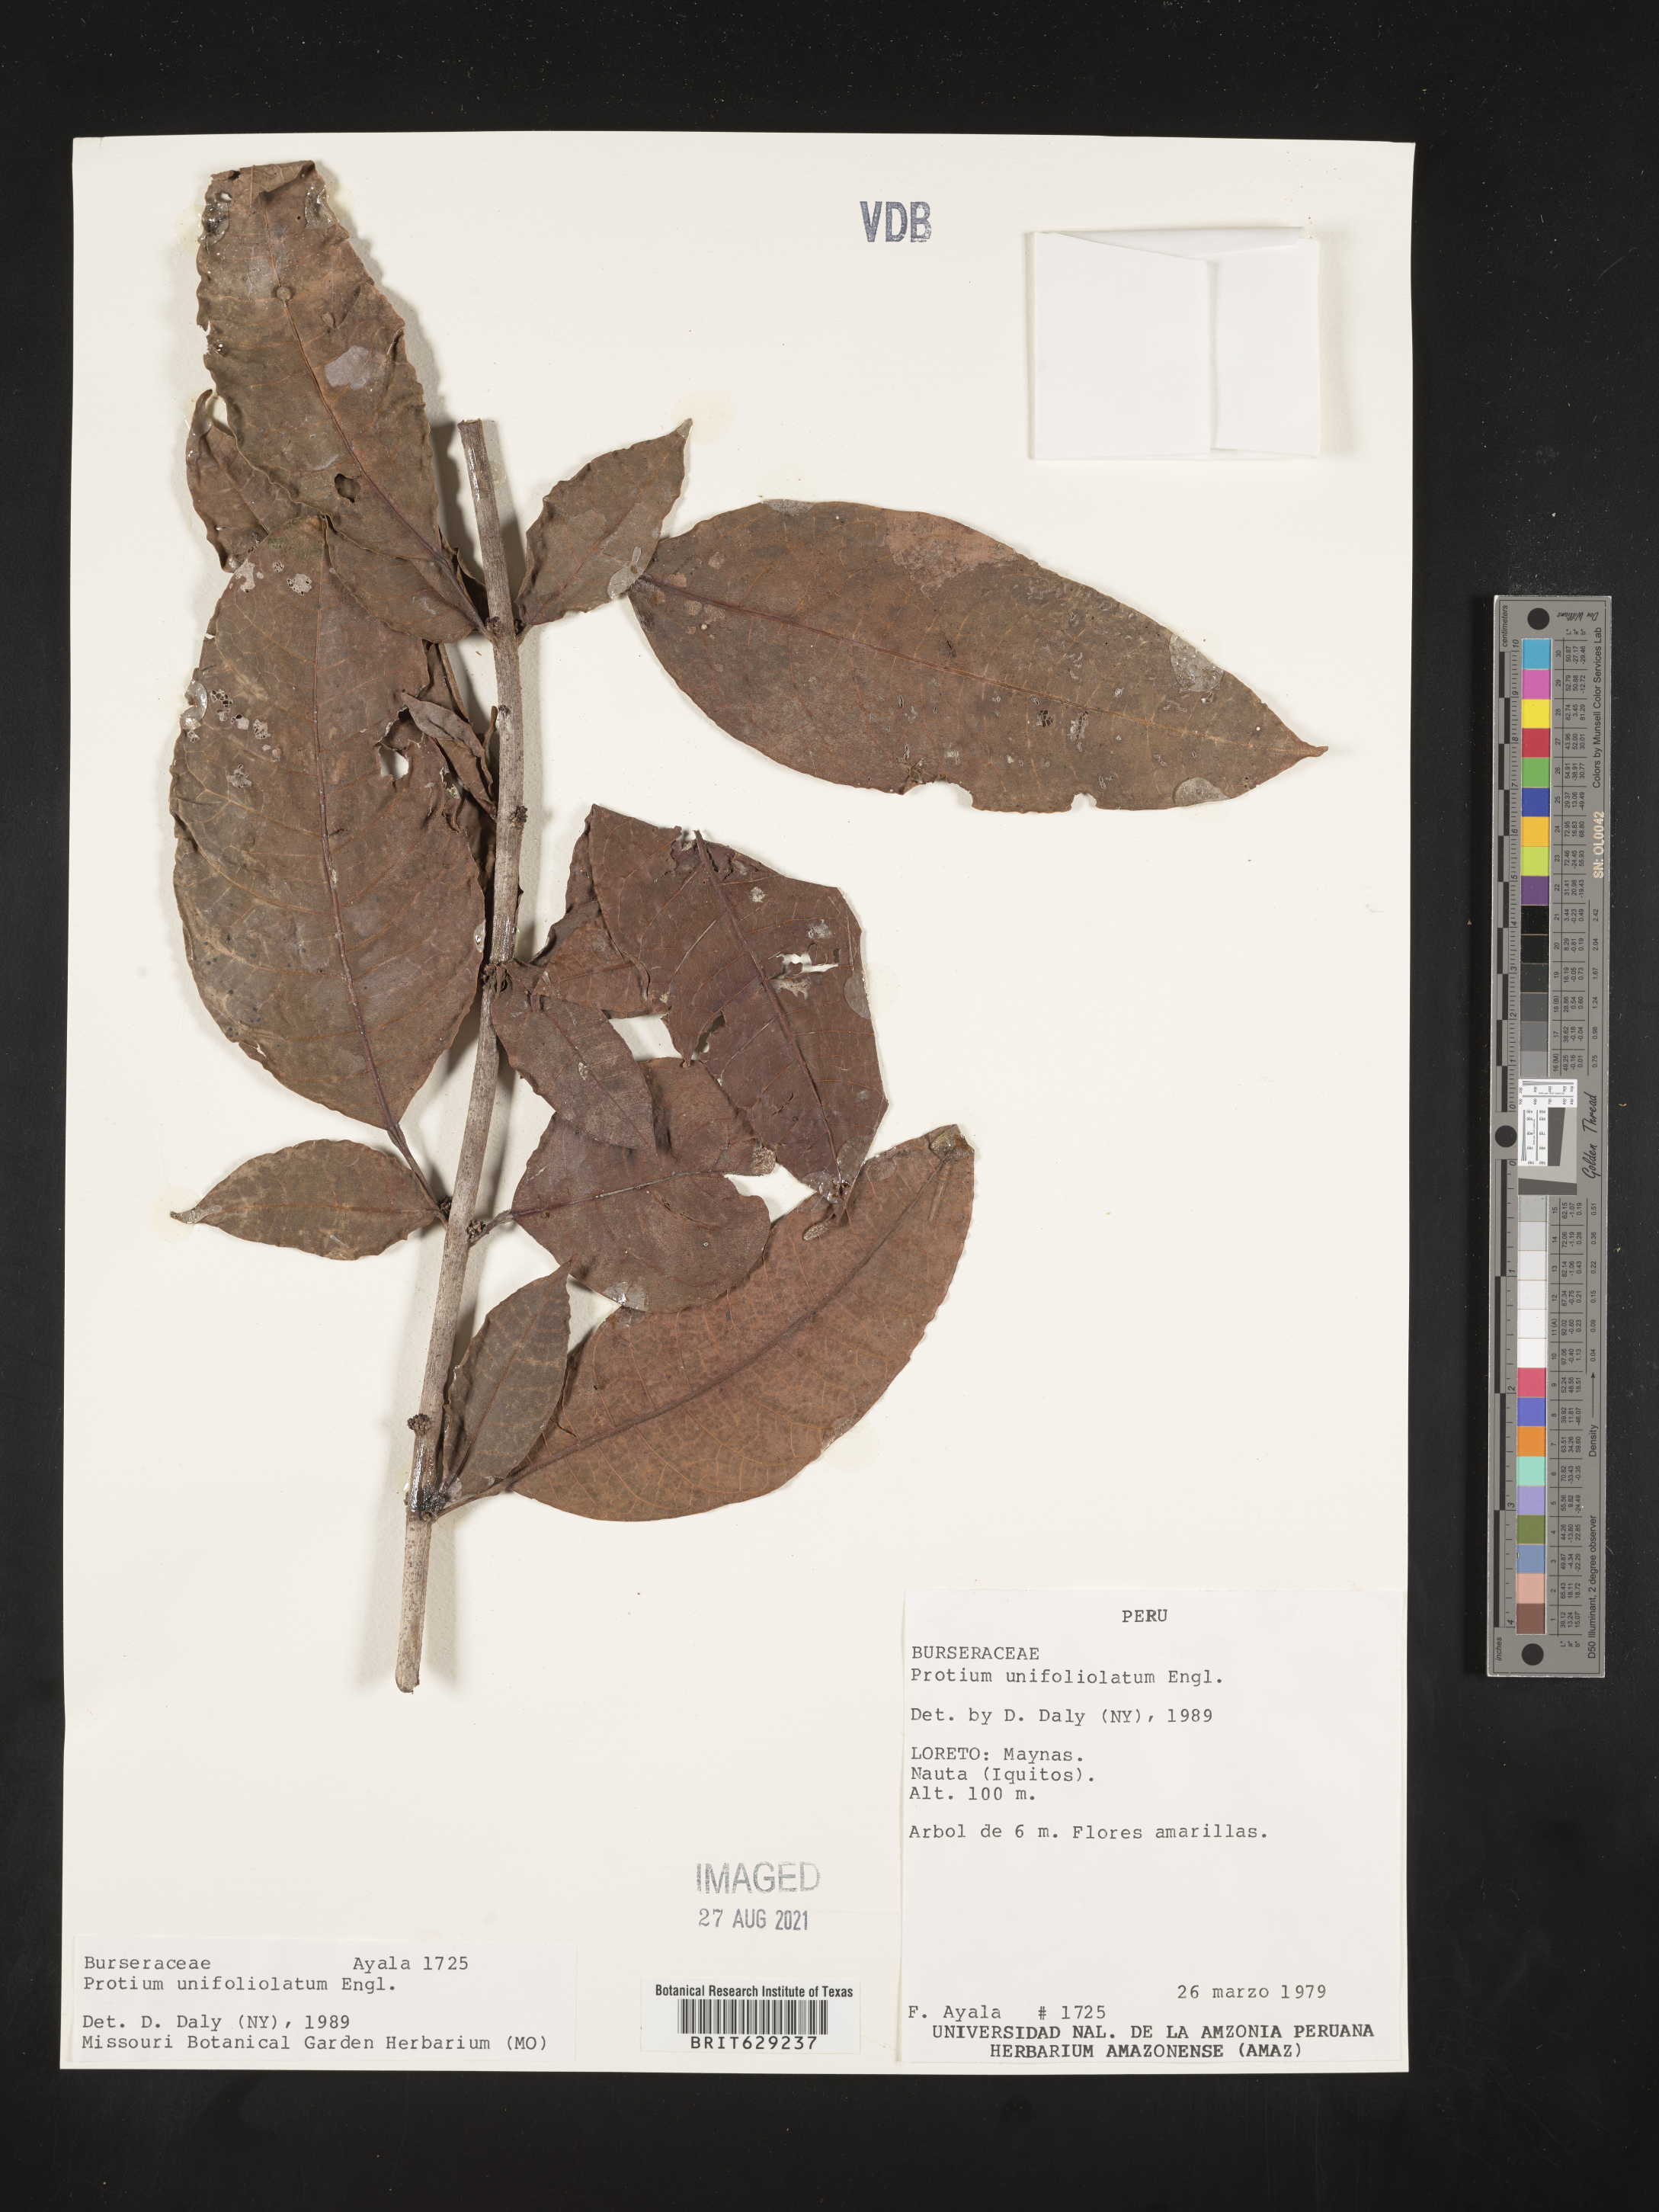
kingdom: Plantae
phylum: Tracheophyta
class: Magnoliopsida
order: Sapindales
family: Burseraceae
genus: Protium
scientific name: Protium unifoliolatum
